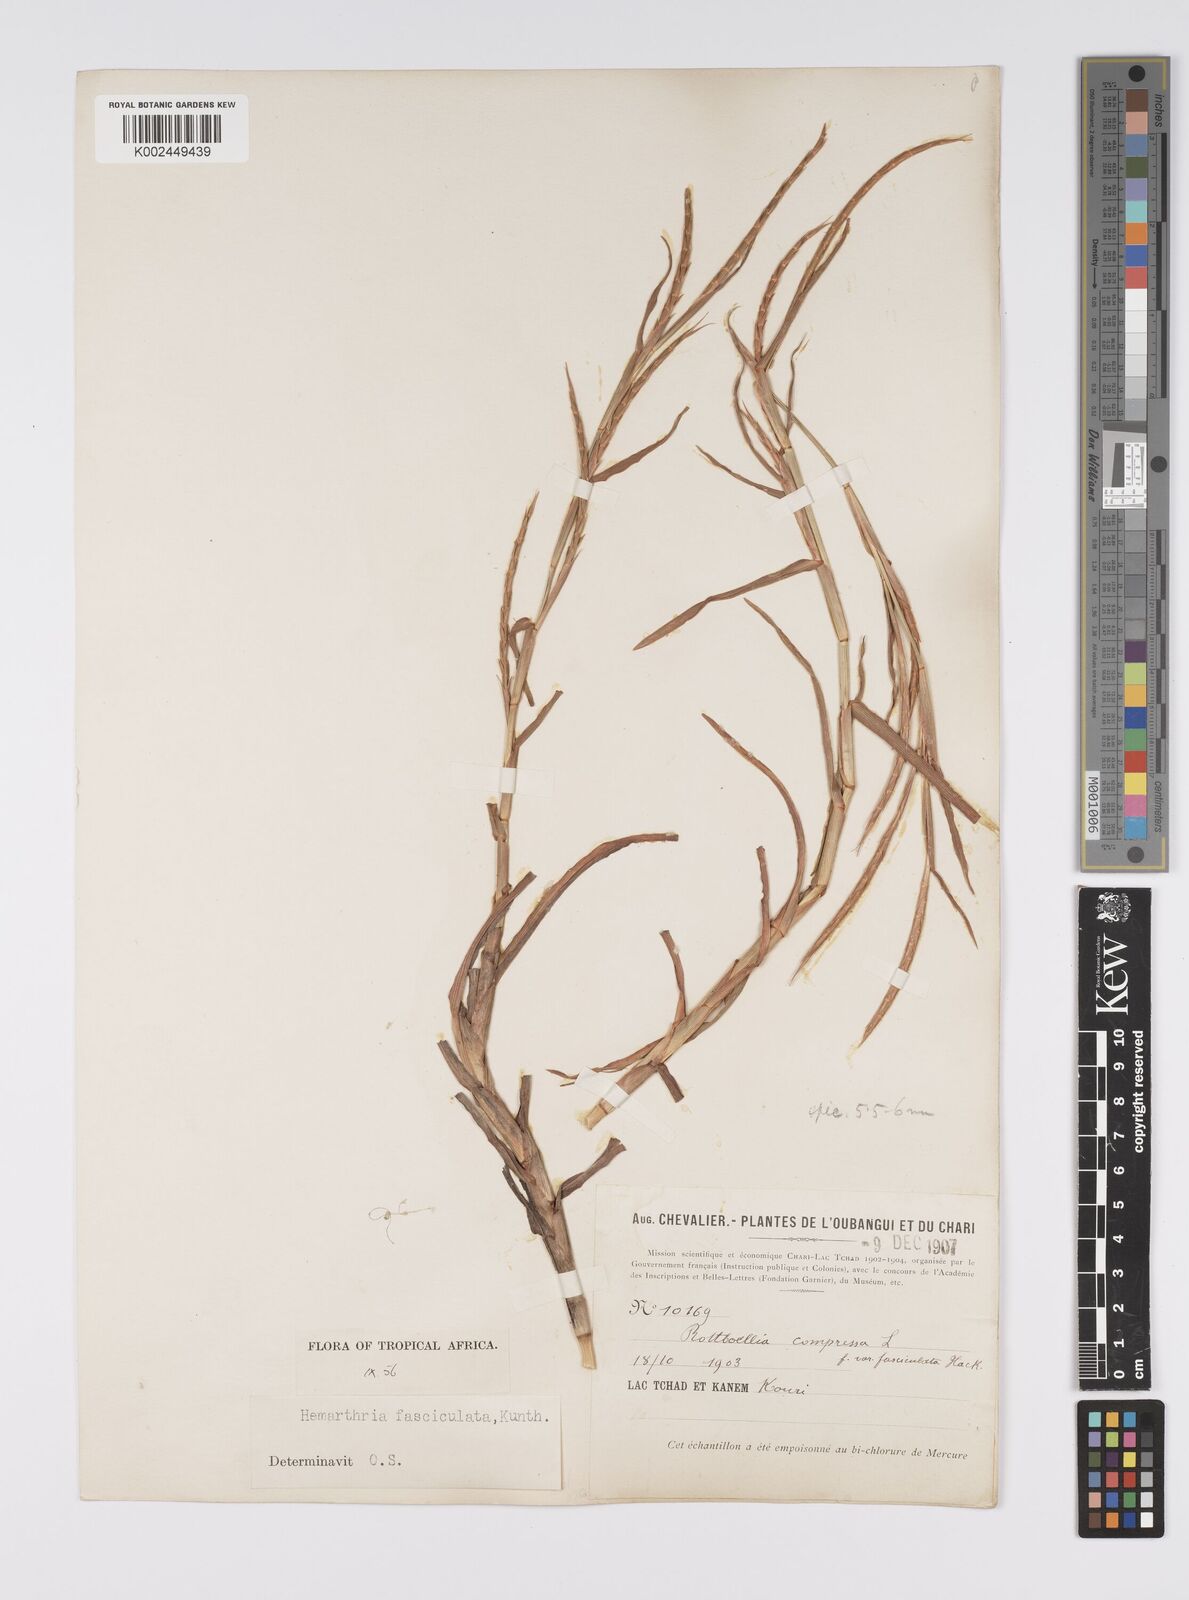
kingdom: Plantae
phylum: Tracheophyta
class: Liliopsida
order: Poales
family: Poaceae
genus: Hemarthria
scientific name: Hemarthria altissima
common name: African jointgrass
